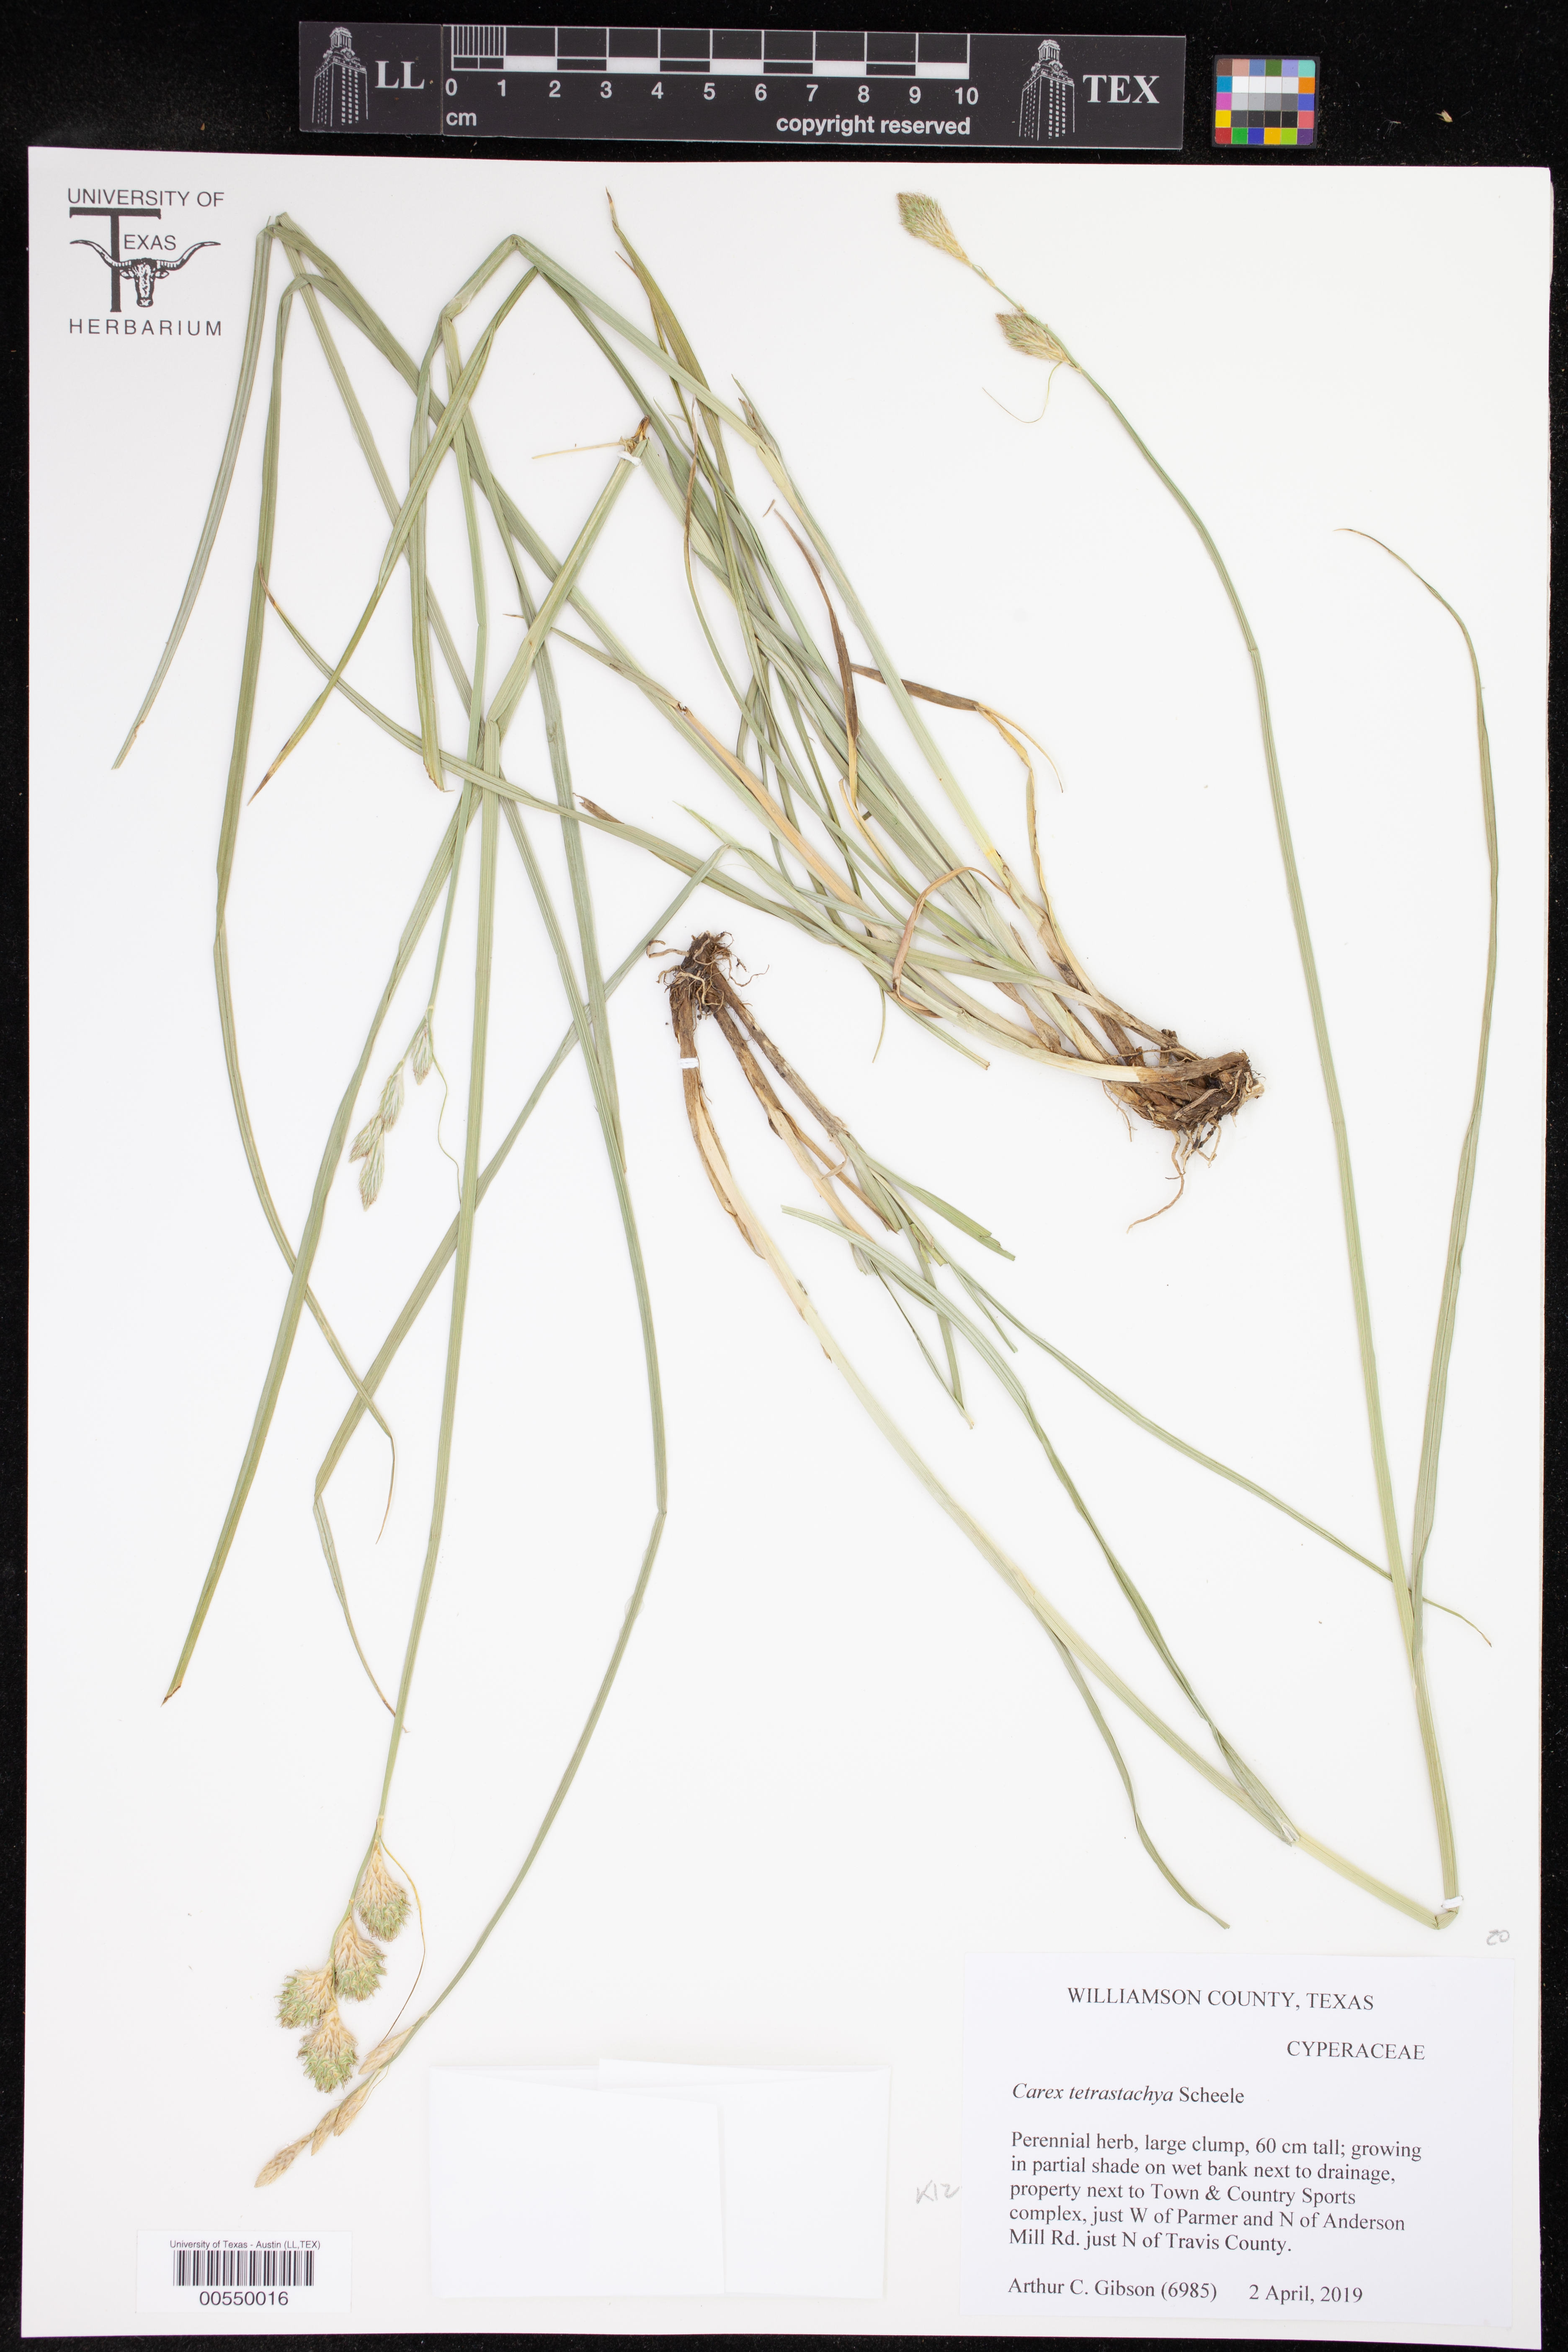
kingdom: Plantae
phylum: Tracheophyta
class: Liliopsida
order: Poales
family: Cyperaceae
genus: Carex
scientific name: Carex tetrastachya
